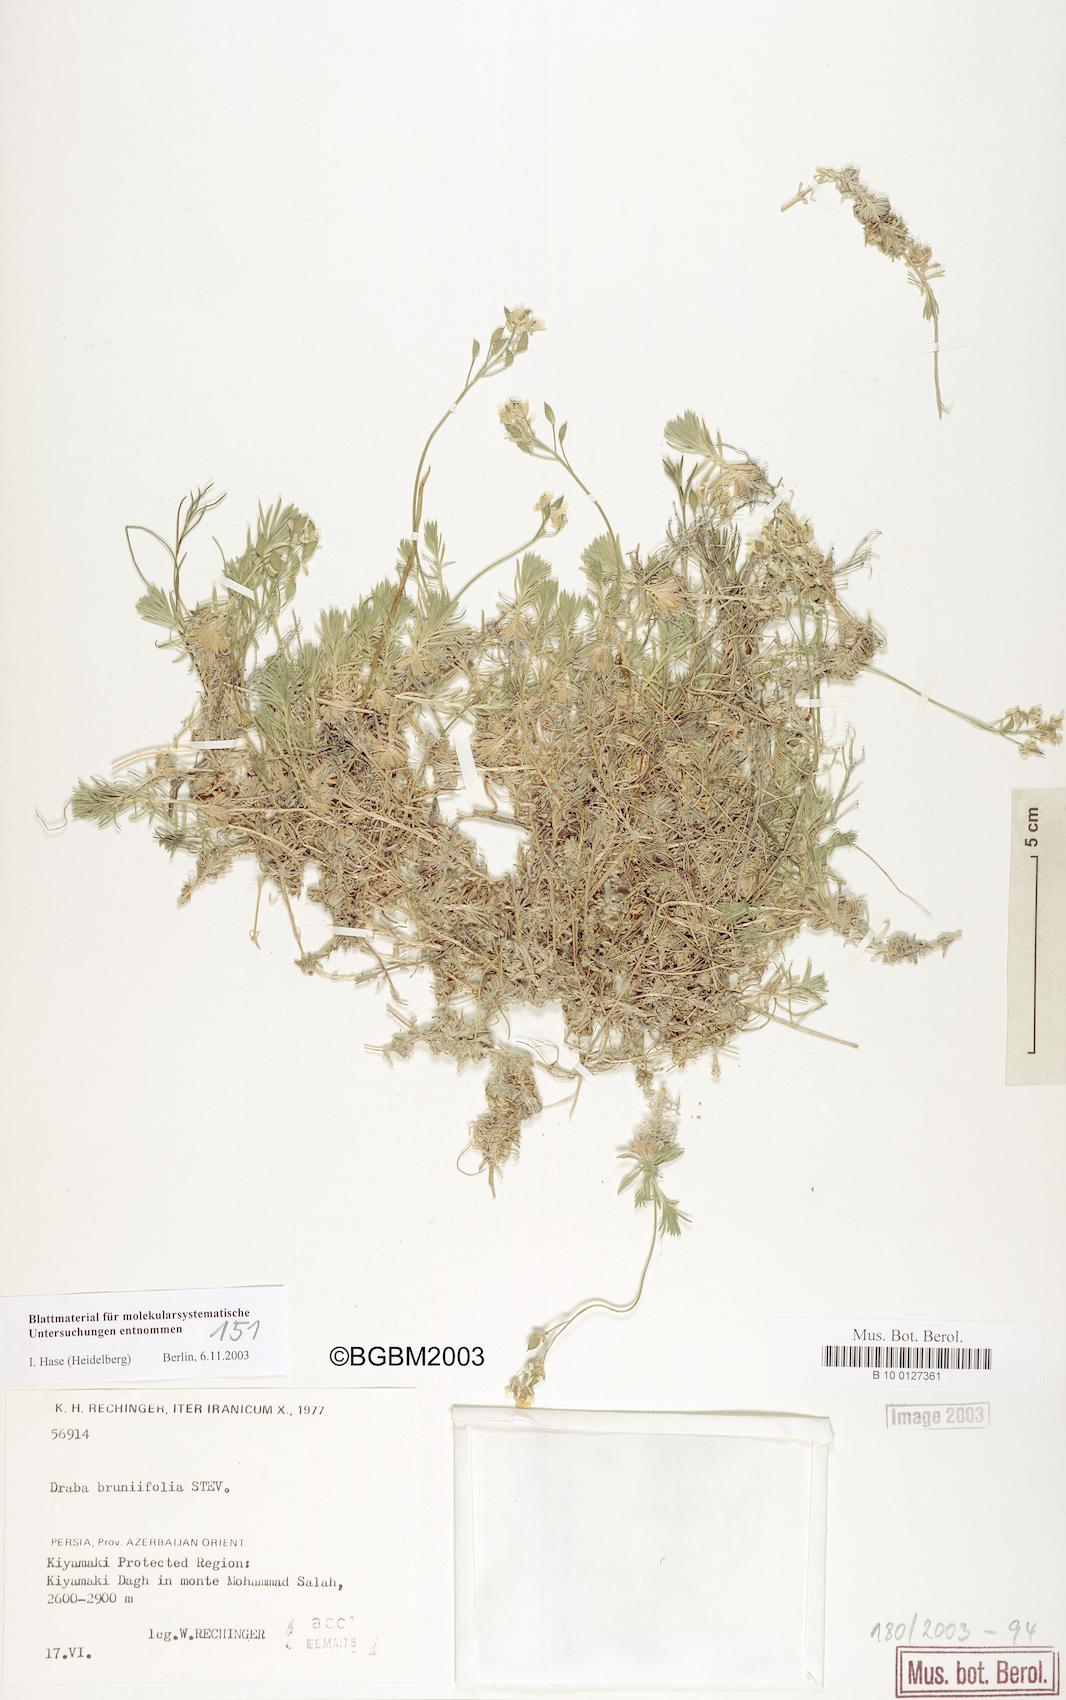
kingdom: Plantae
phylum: Tracheophyta
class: Magnoliopsida
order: Brassicales
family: Brassicaceae
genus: Draba
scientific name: Draba bruniifolia
